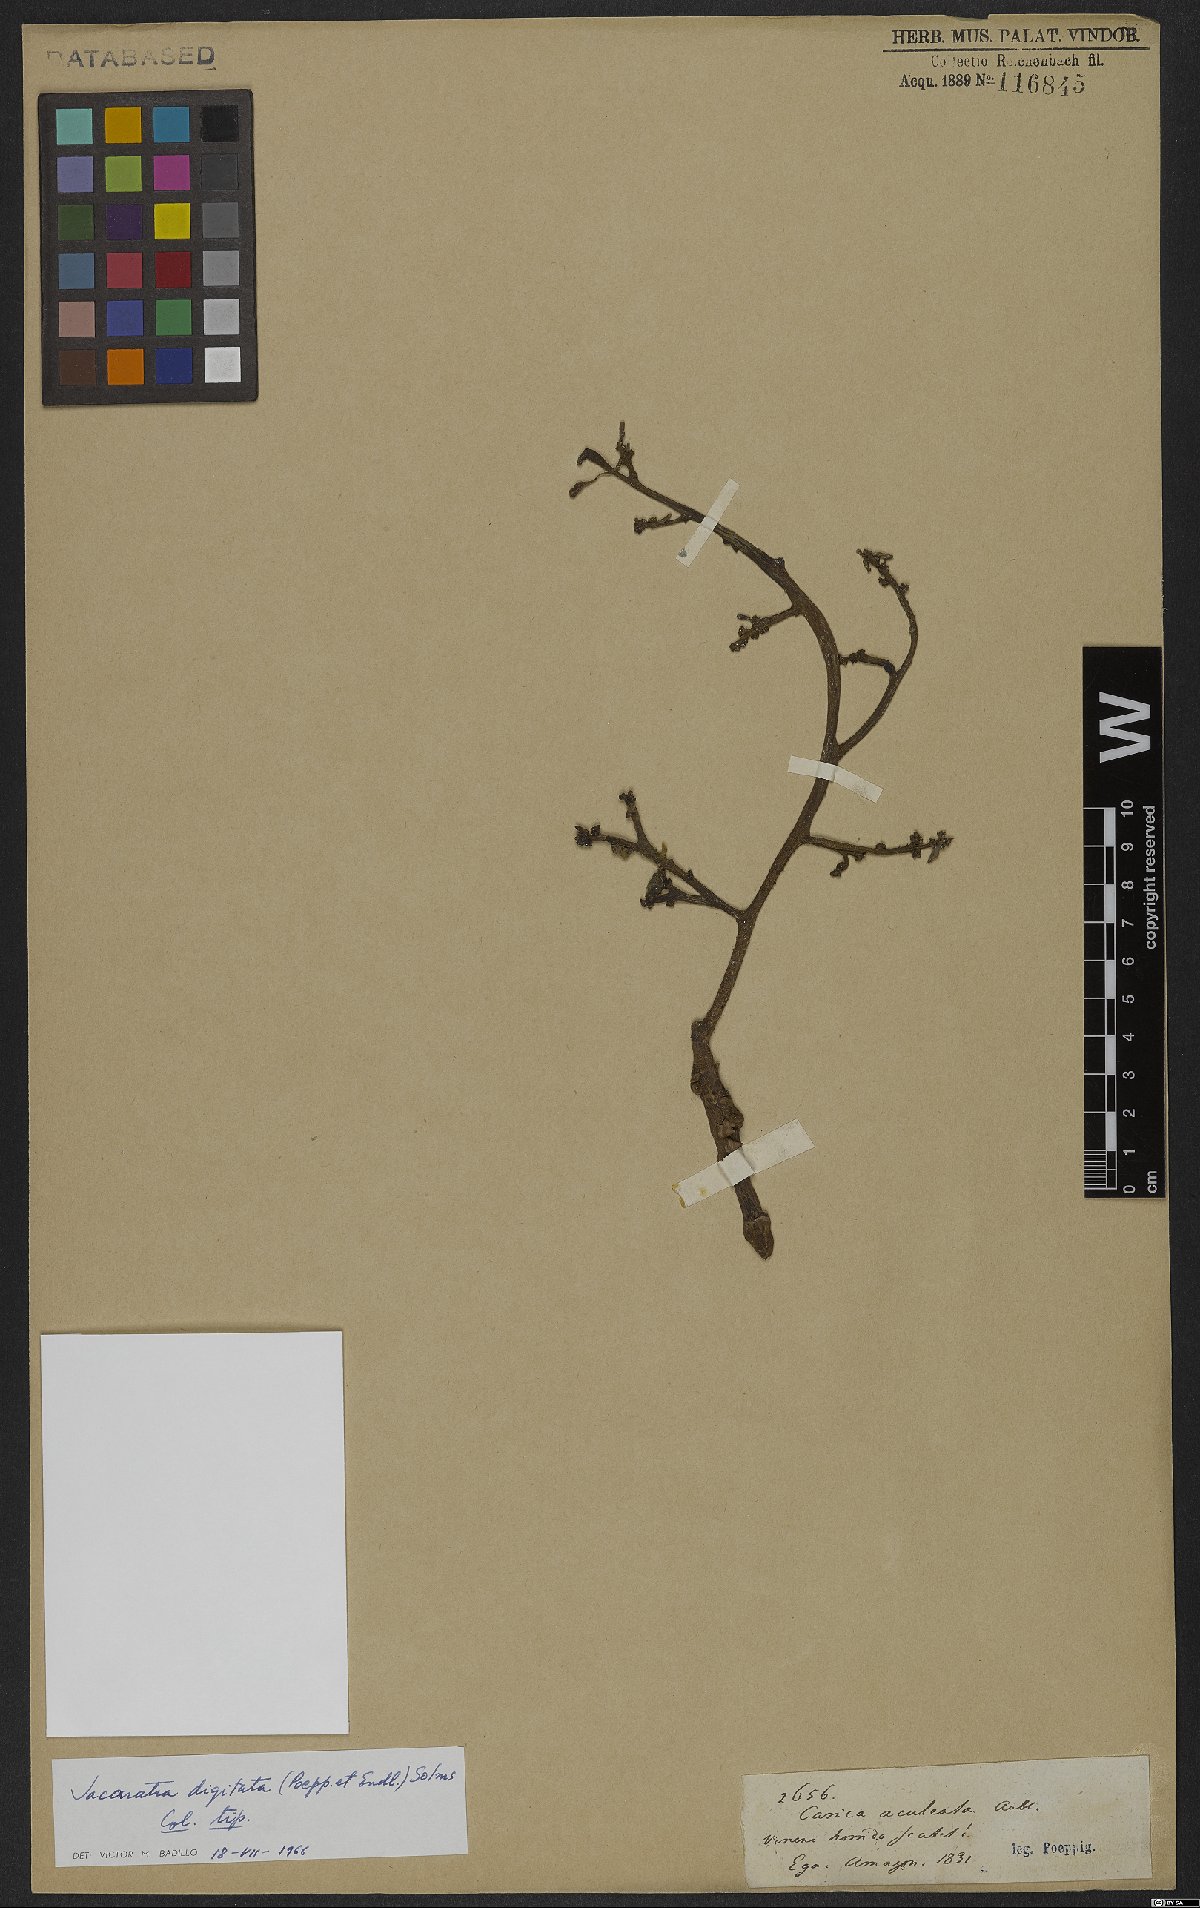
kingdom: Plantae
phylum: Tracheophyta
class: Magnoliopsida
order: Brassicales
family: Caricaceae
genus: Jacaratia
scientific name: Jacaratia digitata
